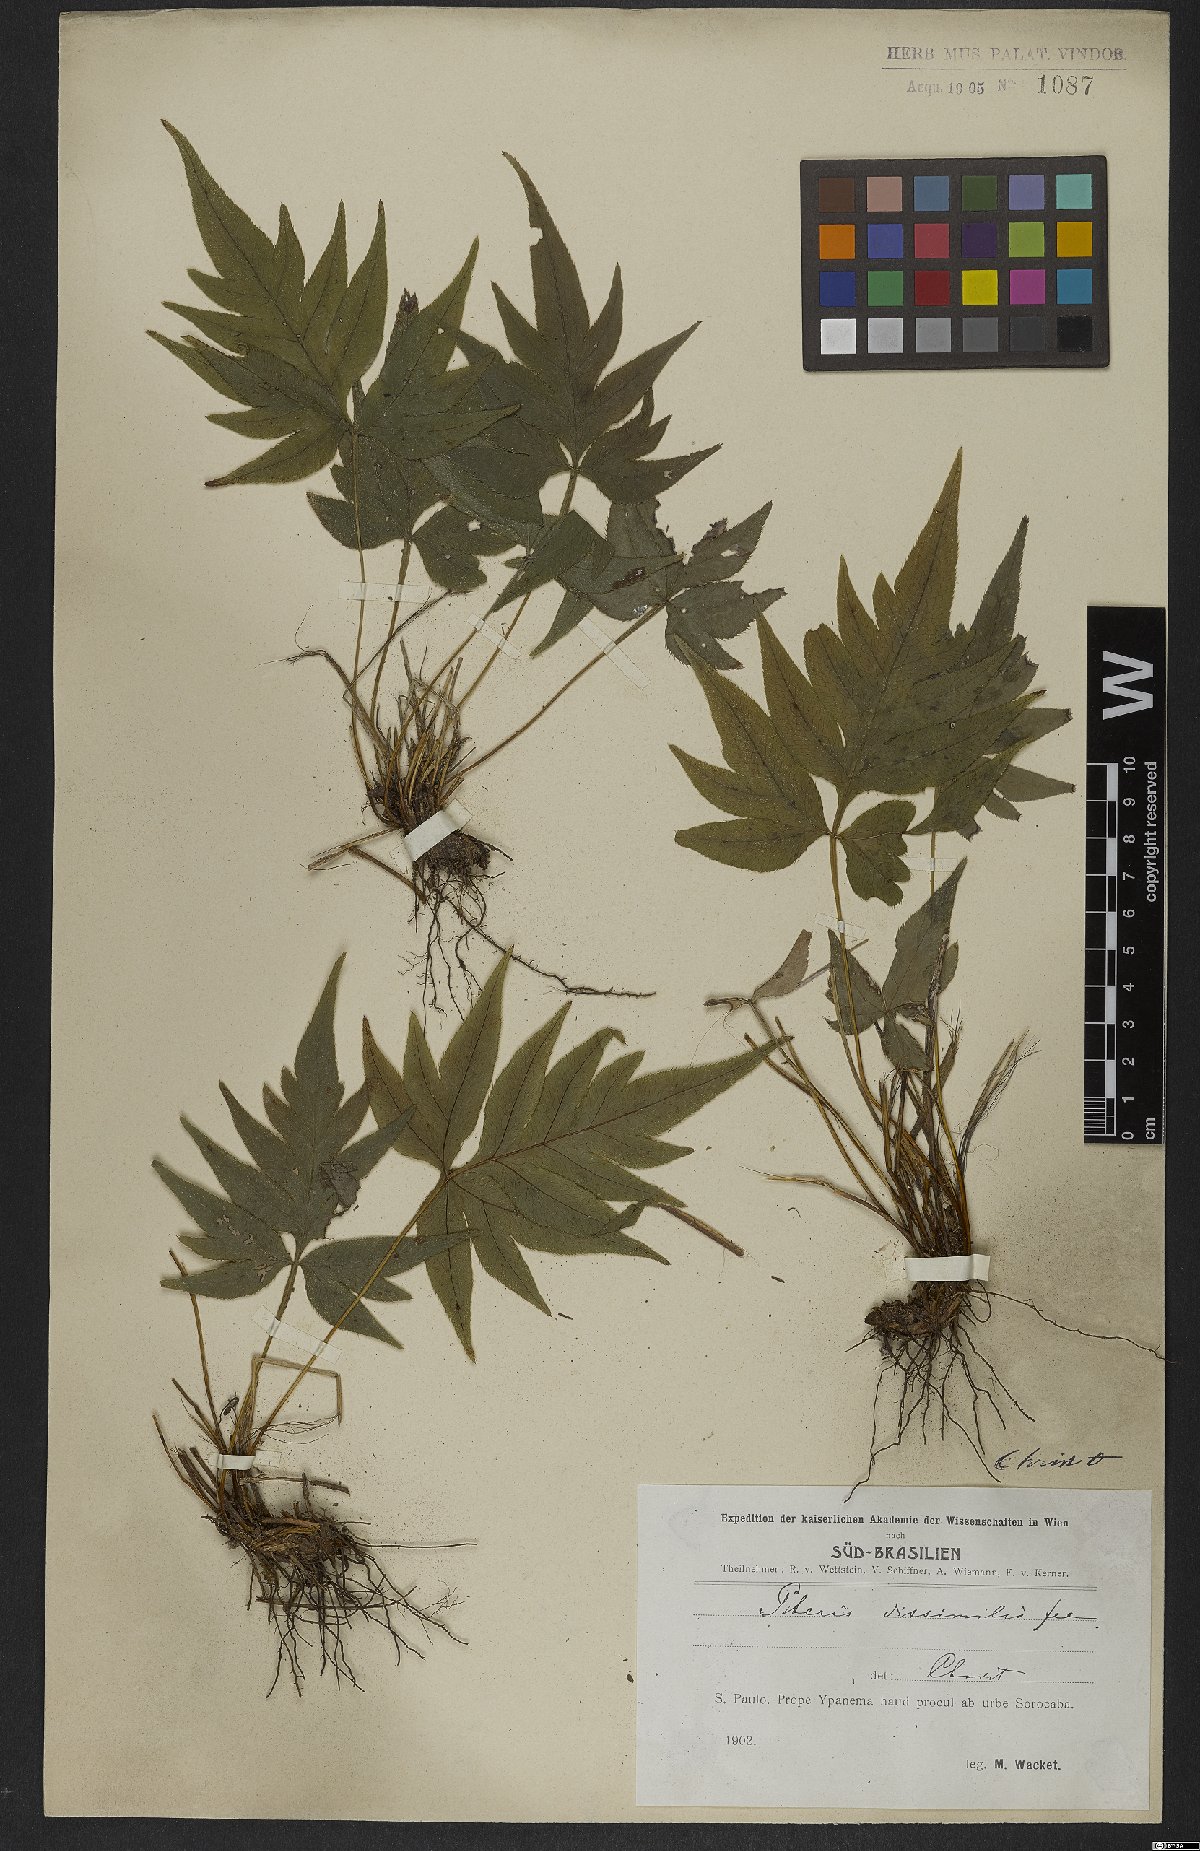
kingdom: Plantae
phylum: Tracheophyta
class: Polypodiopsida
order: Polypodiales
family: Pteridaceae
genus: Pteris
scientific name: Pteris denticulata
